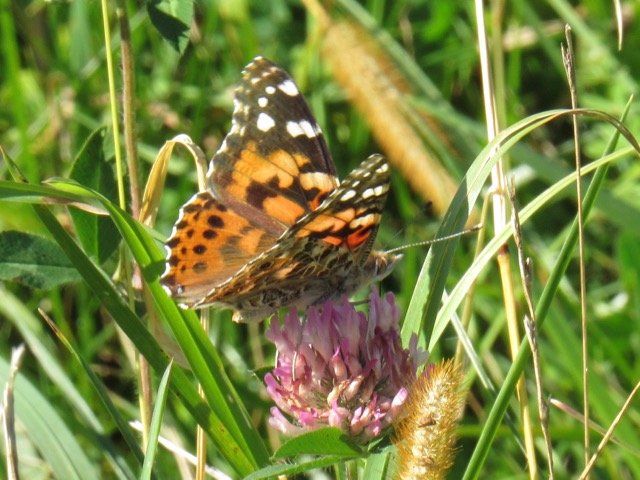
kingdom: Animalia
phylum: Arthropoda
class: Insecta
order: Lepidoptera
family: Nymphalidae
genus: Vanessa
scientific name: Vanessa cardui
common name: Painted Lady
